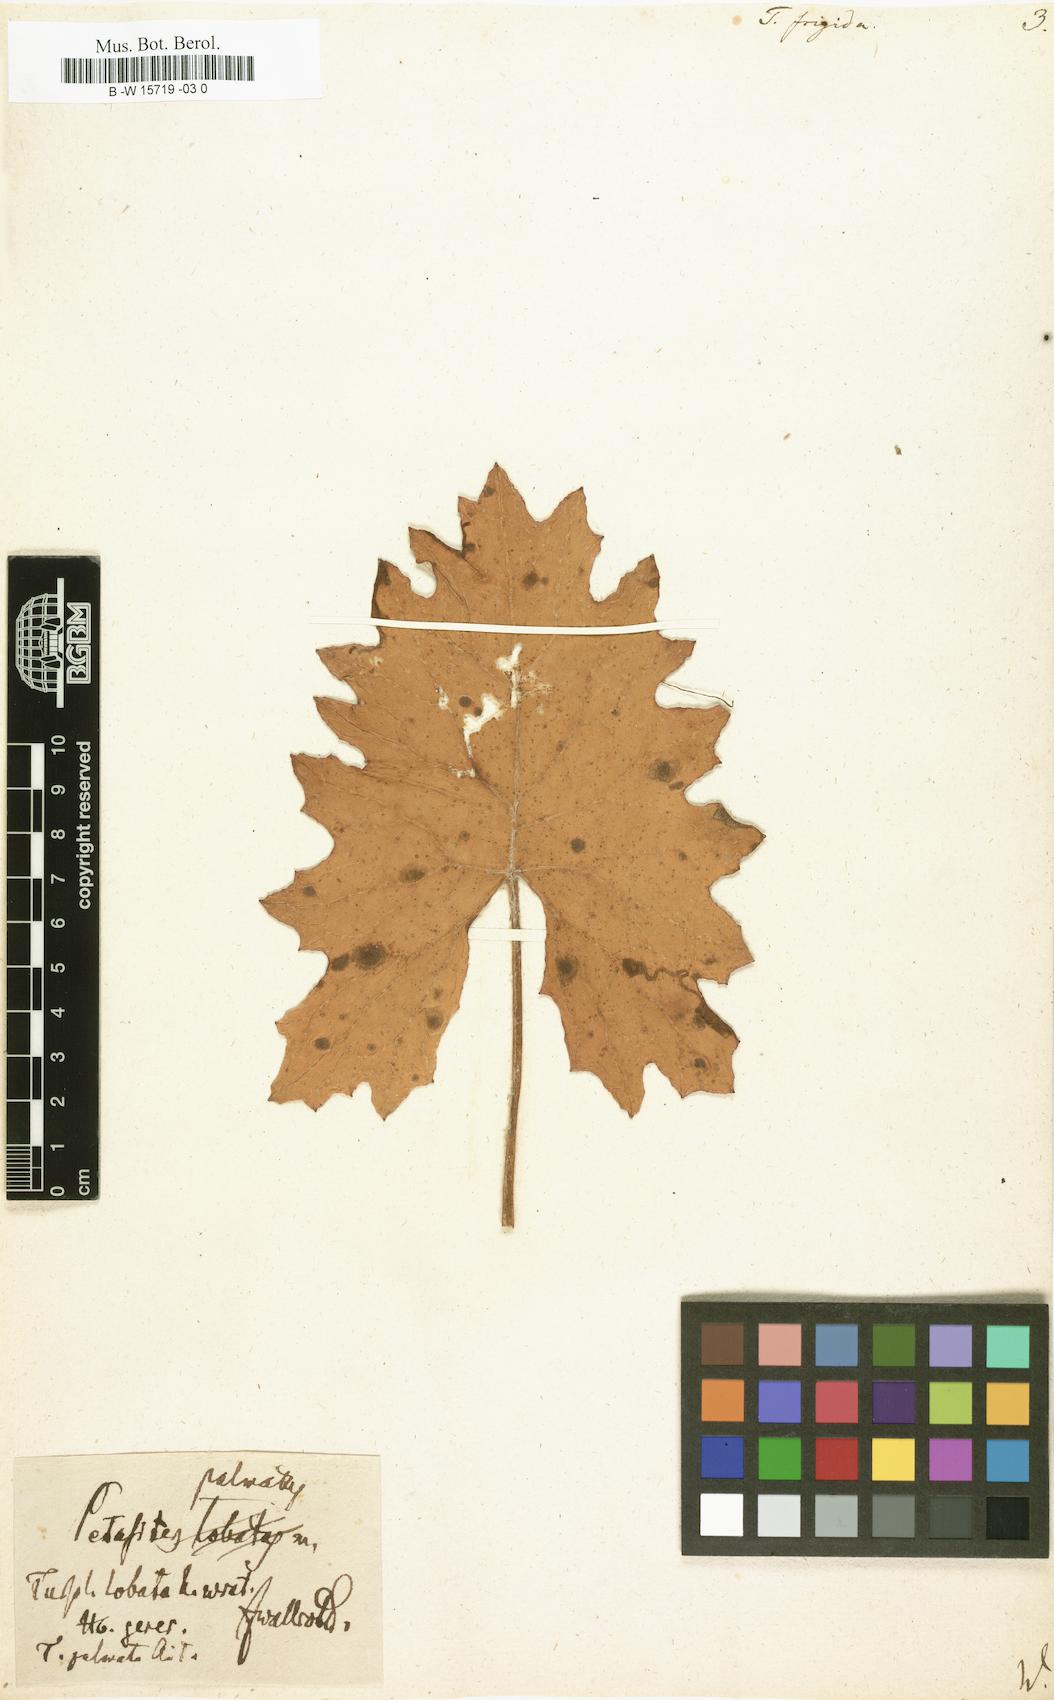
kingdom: Plantae
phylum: Tracheophyta
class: Magnoliopsida
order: Asterales
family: Asteraceae
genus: Petasites
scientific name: Petasites
